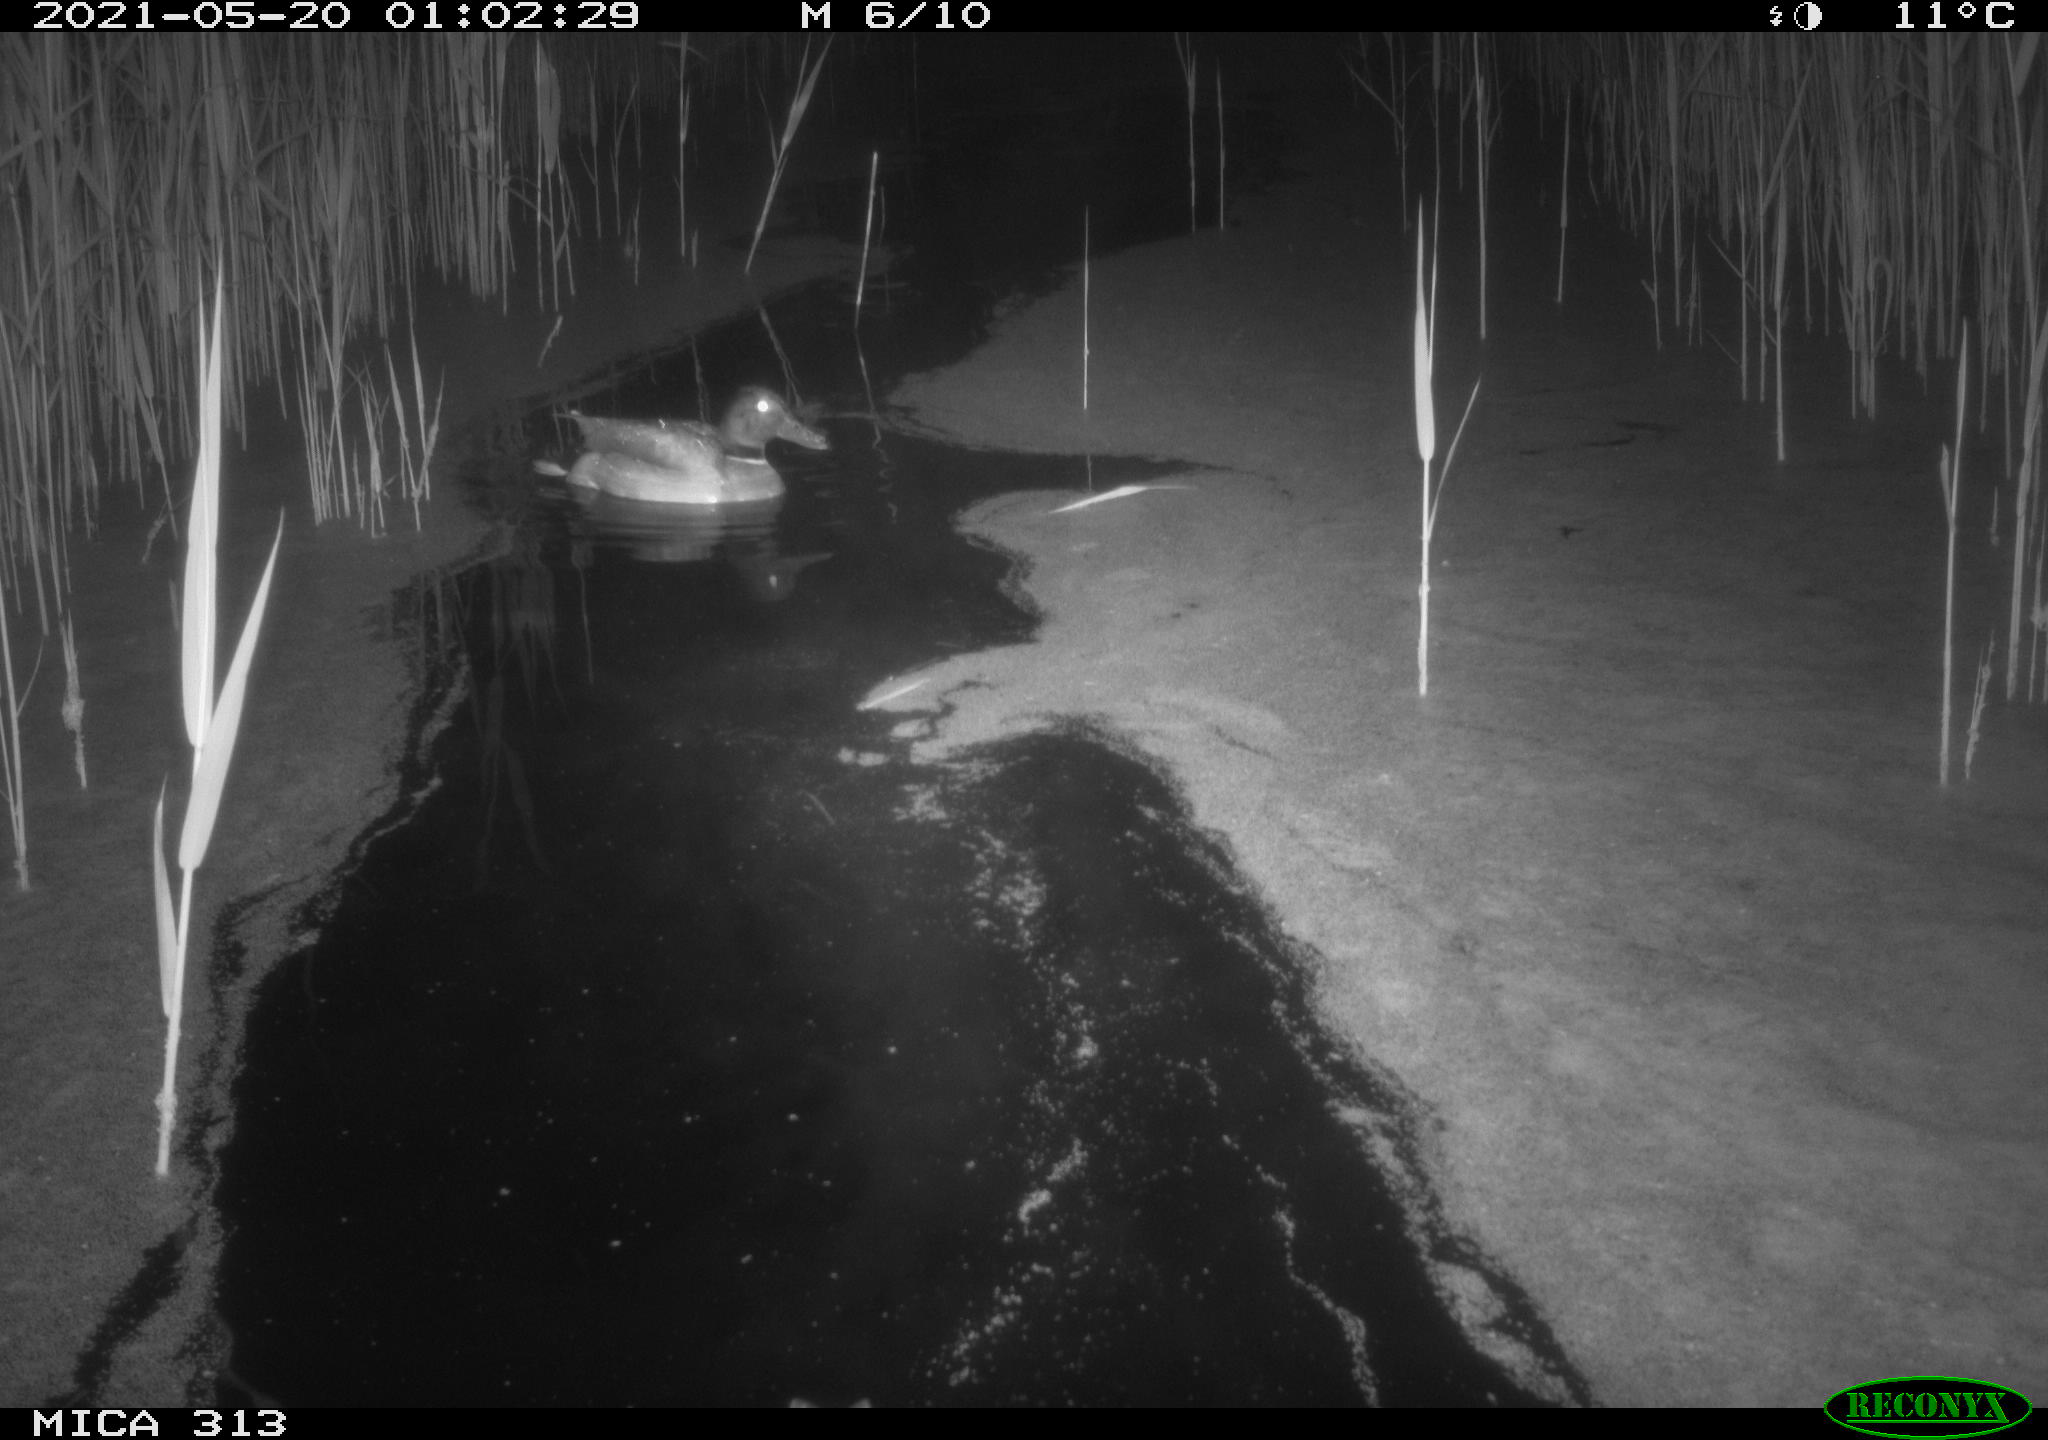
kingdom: Animalia
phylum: Chordata
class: Aves
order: Anseriformes
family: Anatidae
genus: Anas
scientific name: Anas platyrhynchos
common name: Mallard
